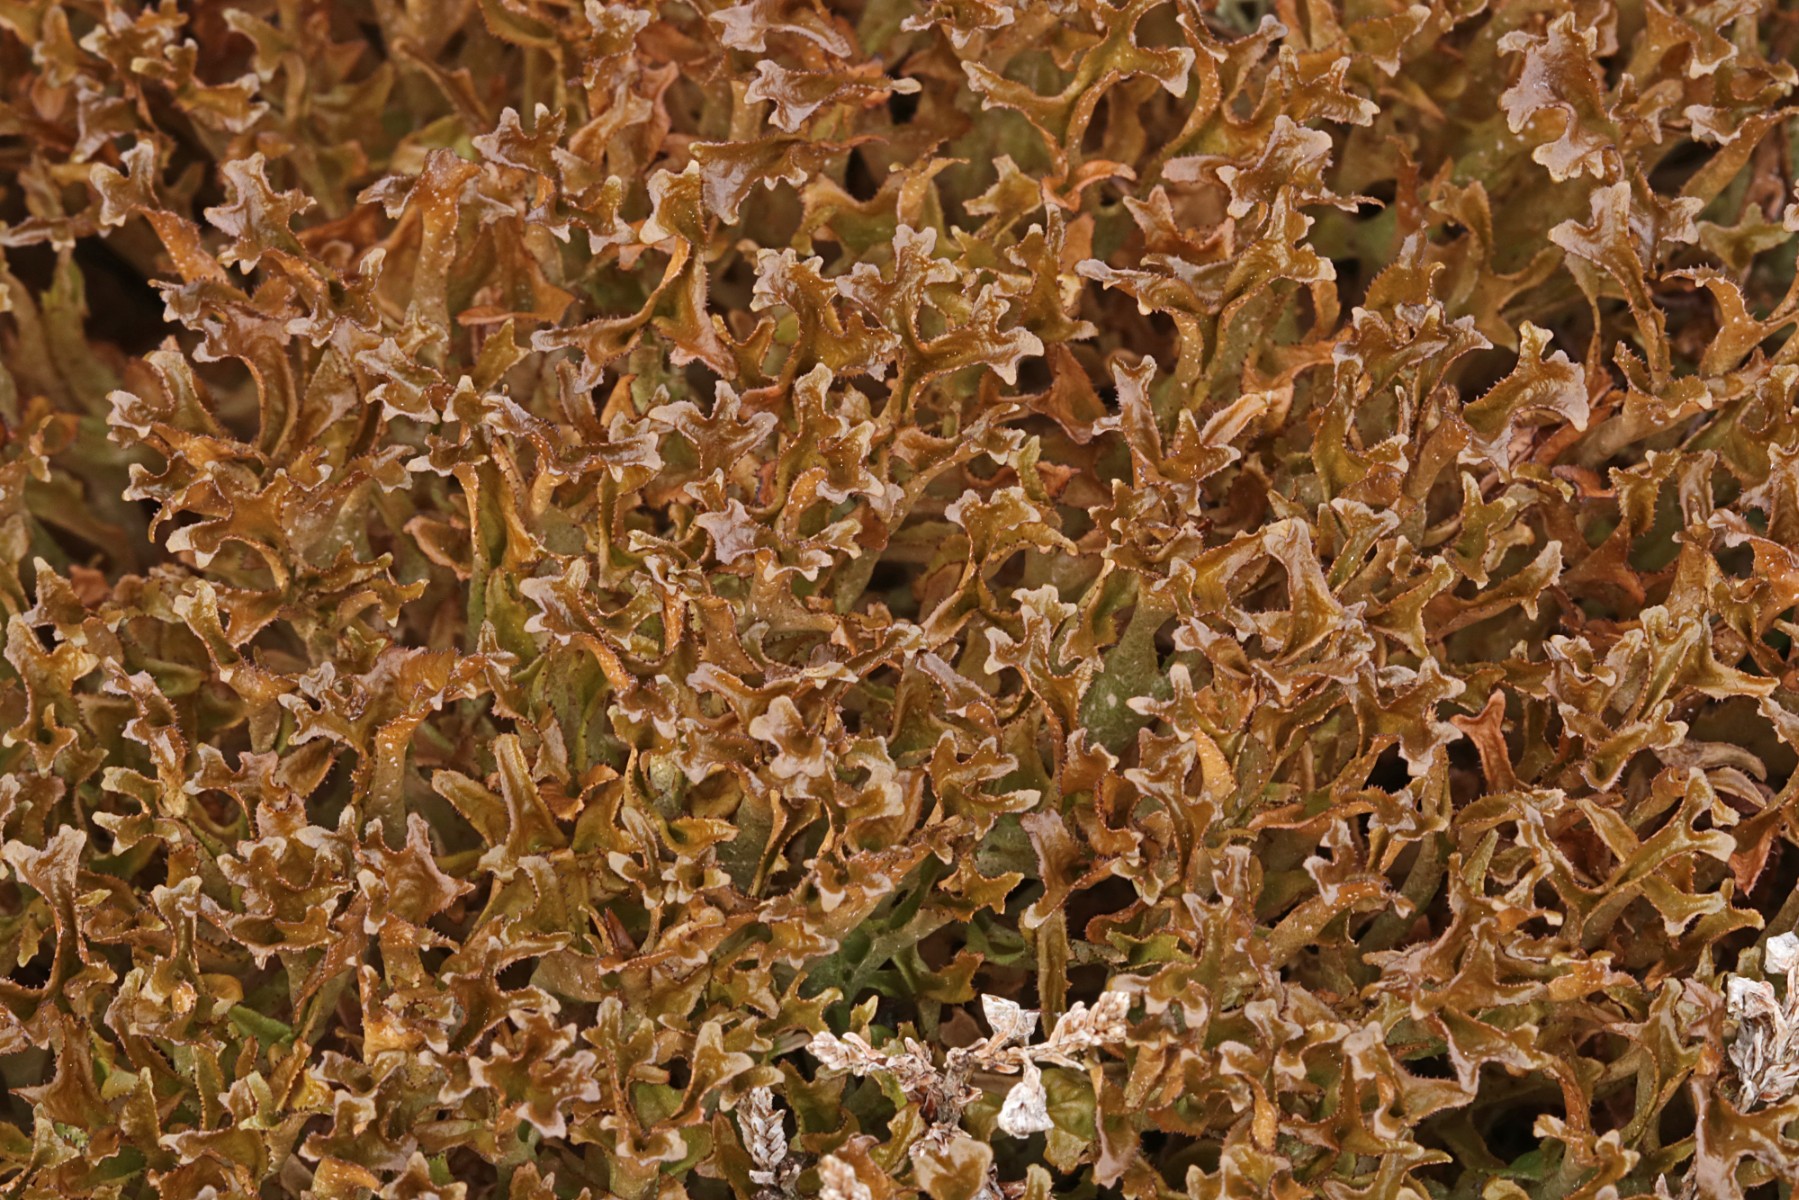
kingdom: Fungi
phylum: Ascomycota
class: Lecanoromycetes
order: Lecanorales
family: Parmeliaceae
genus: Cetraria
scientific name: Cetraria islandica
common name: islandsk kruslav
